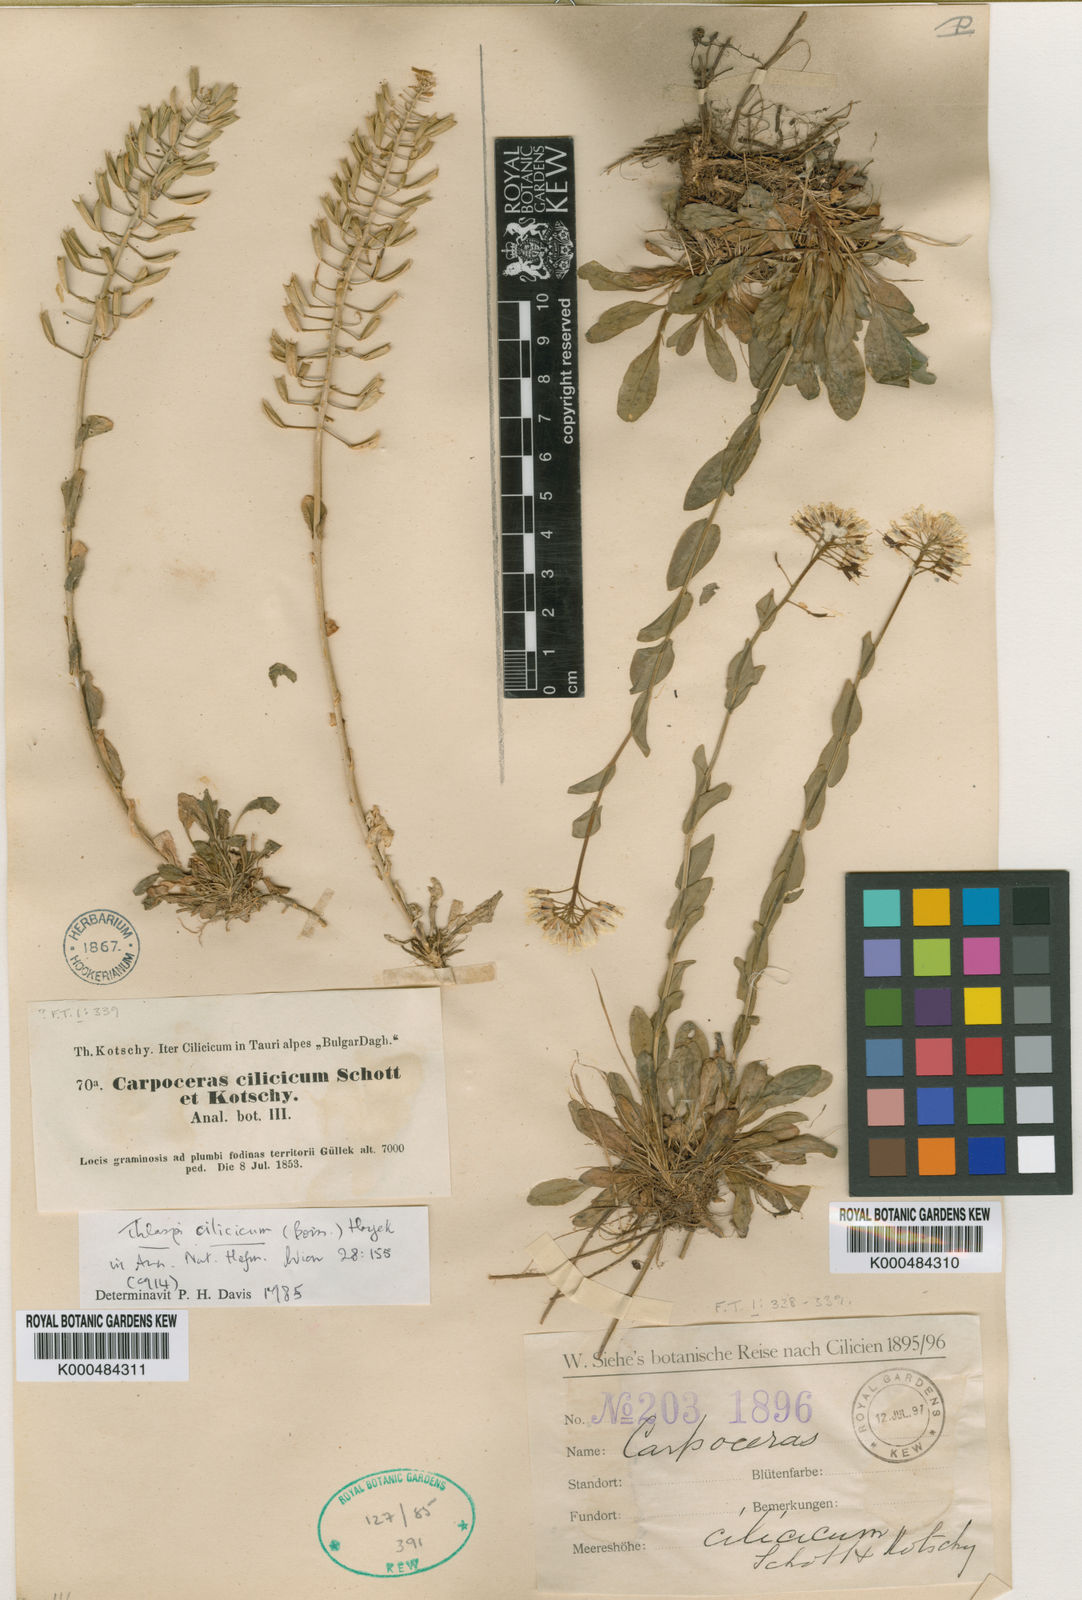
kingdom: Plantae
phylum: Tracheophyta
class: Magnoliopsida
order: Brassicales
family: Brassicaceae
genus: Thlaspi
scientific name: Thlaspi
